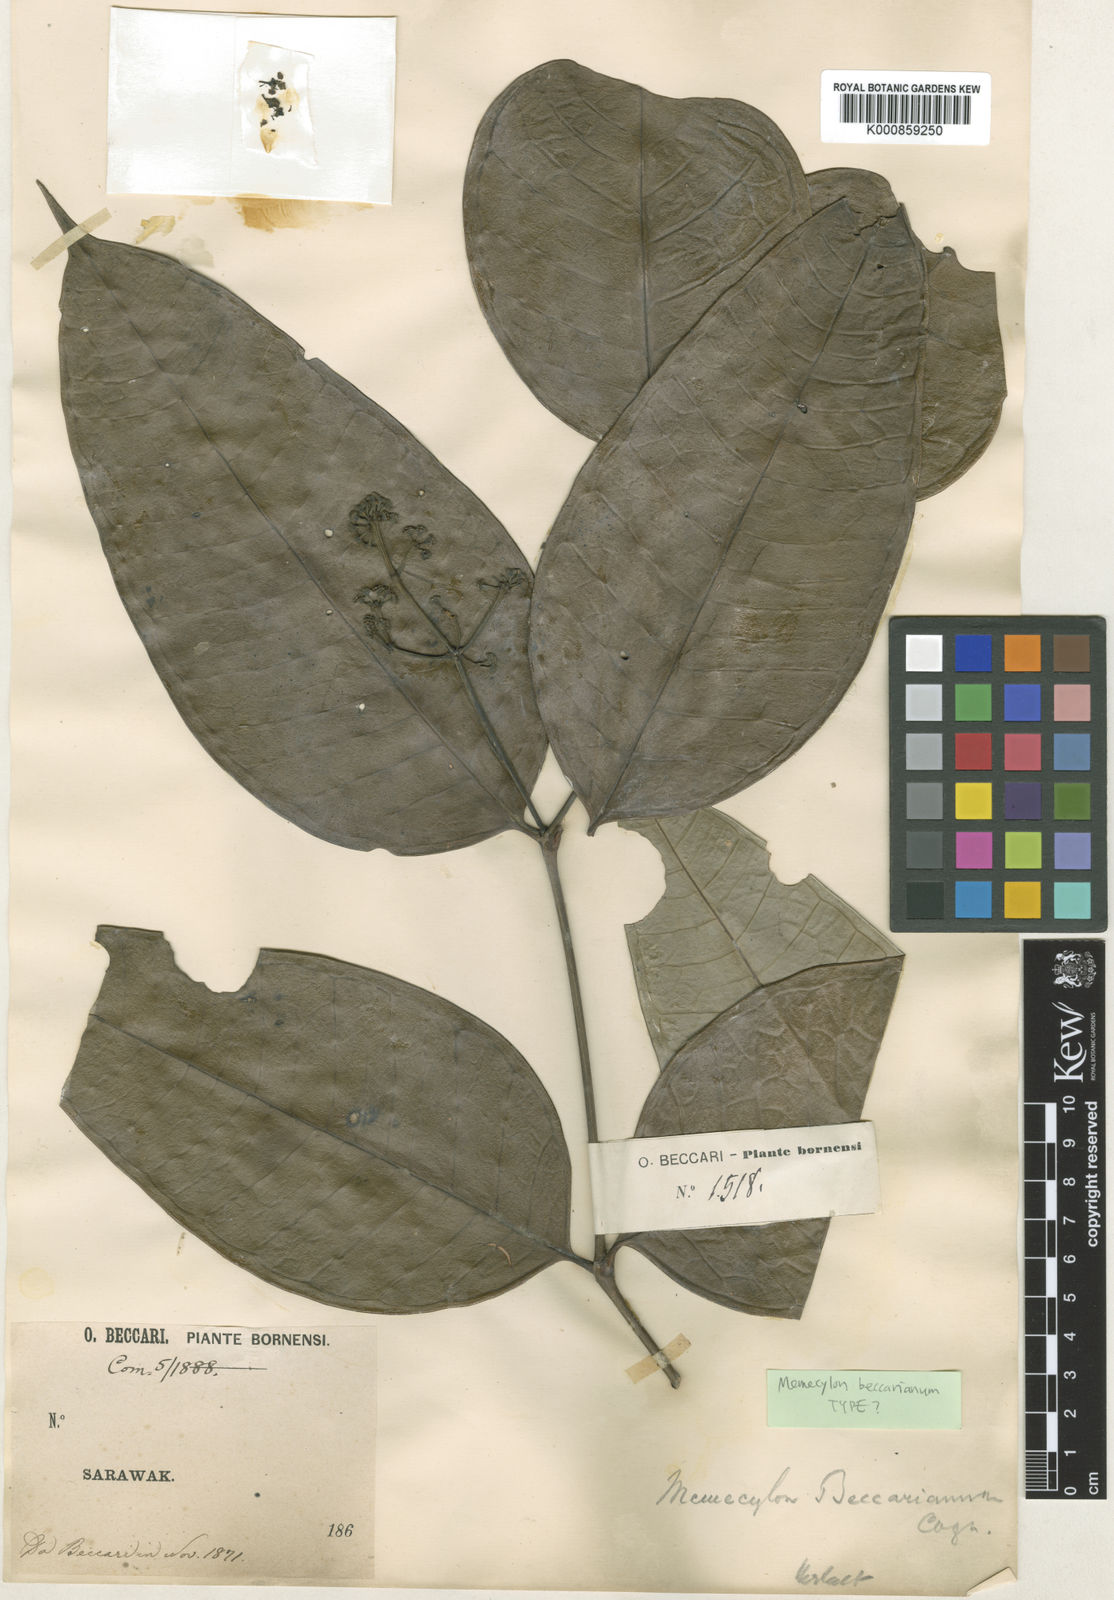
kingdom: Plantae
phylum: Tracheophyta
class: Magnoliopsida
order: Myrtales
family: Melastomataceae
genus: Memecylon
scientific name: Memecylon beccarianum
